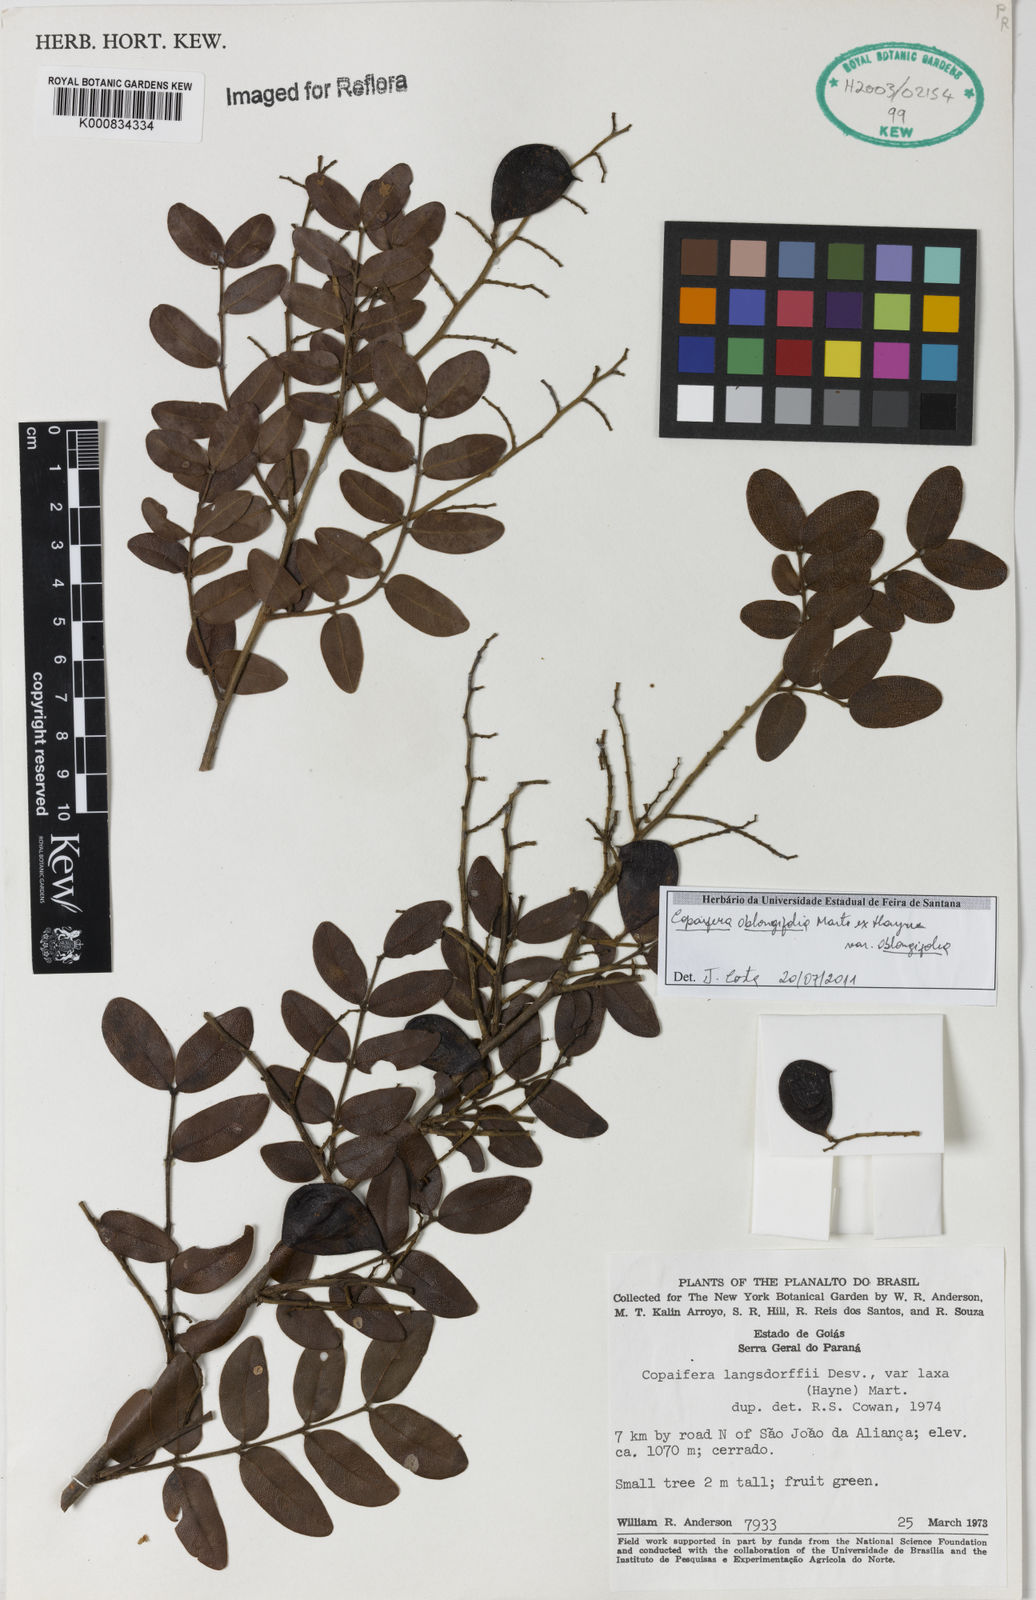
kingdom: Plantae
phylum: Tracheophyta
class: Magnoliopsida
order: Fabales
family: Fabaceae
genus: Copaifera
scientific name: Copaifera oblongifolia
